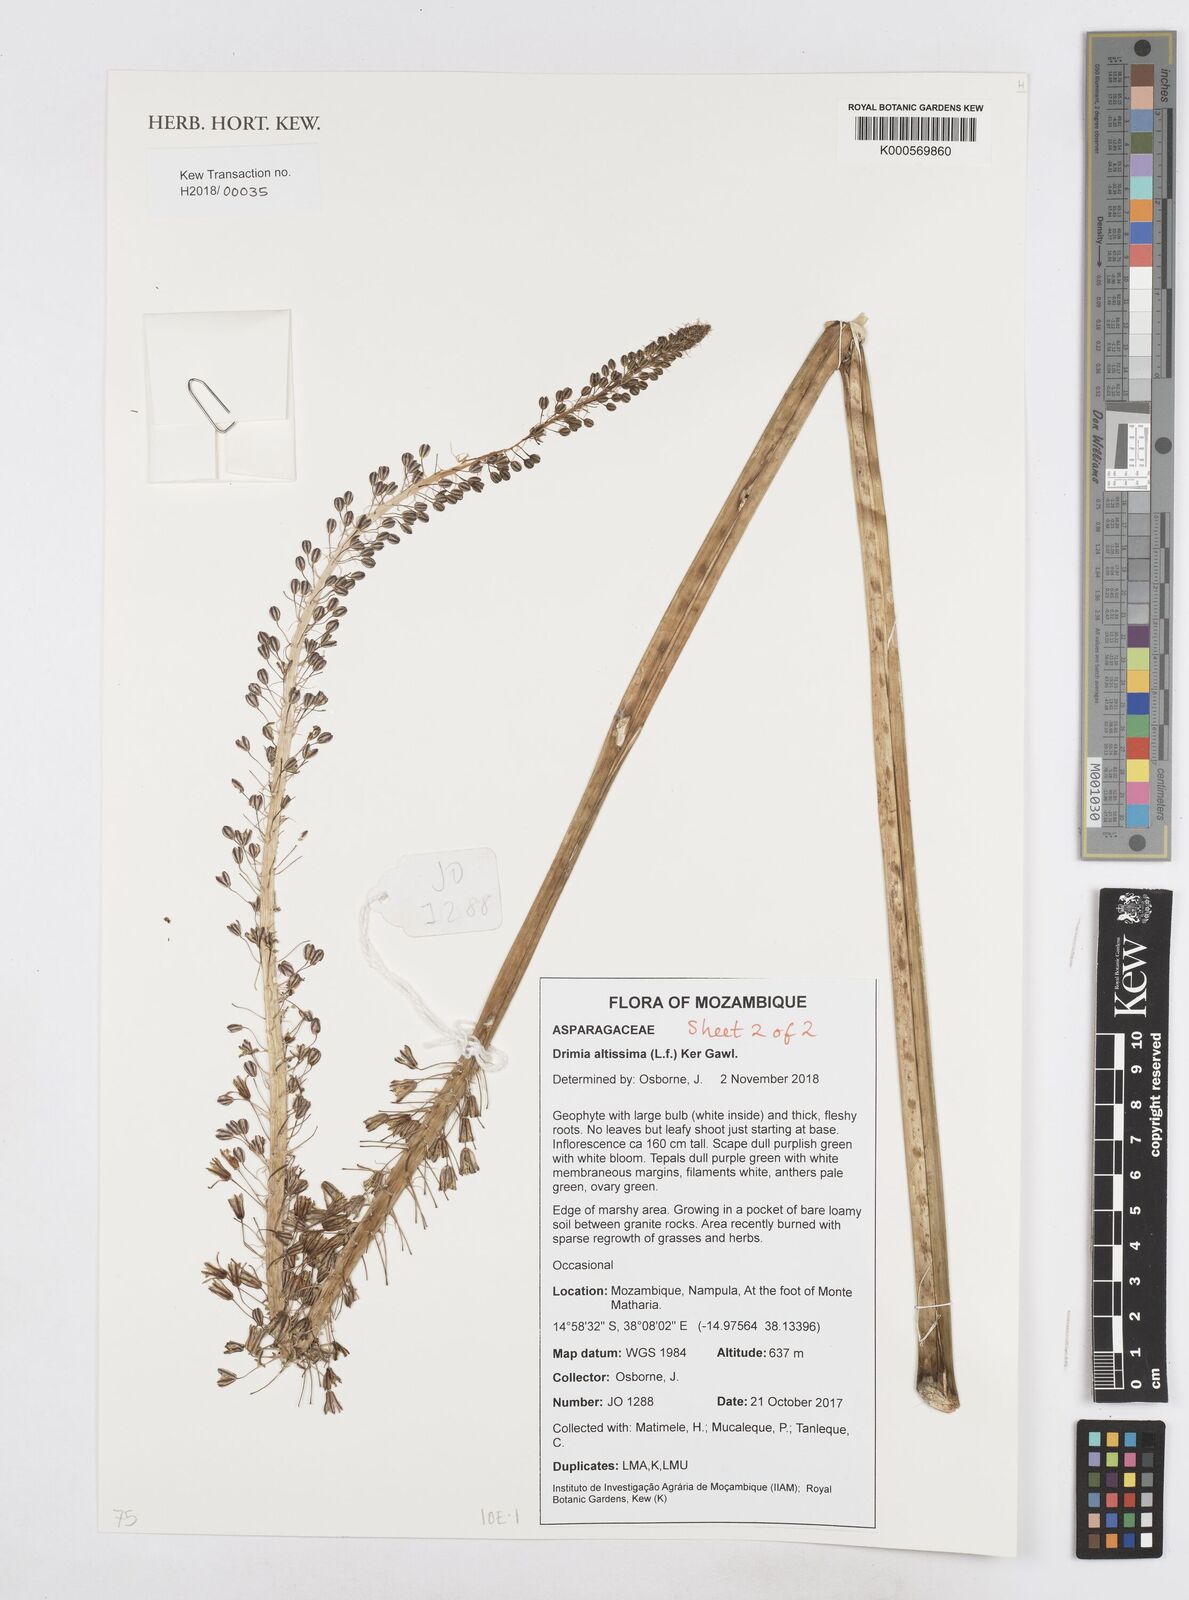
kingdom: Plantae
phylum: Tracheophyta
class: Liliopsida
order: Asparagales
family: Asparagaceae
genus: Drimia
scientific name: Drimia altissima
